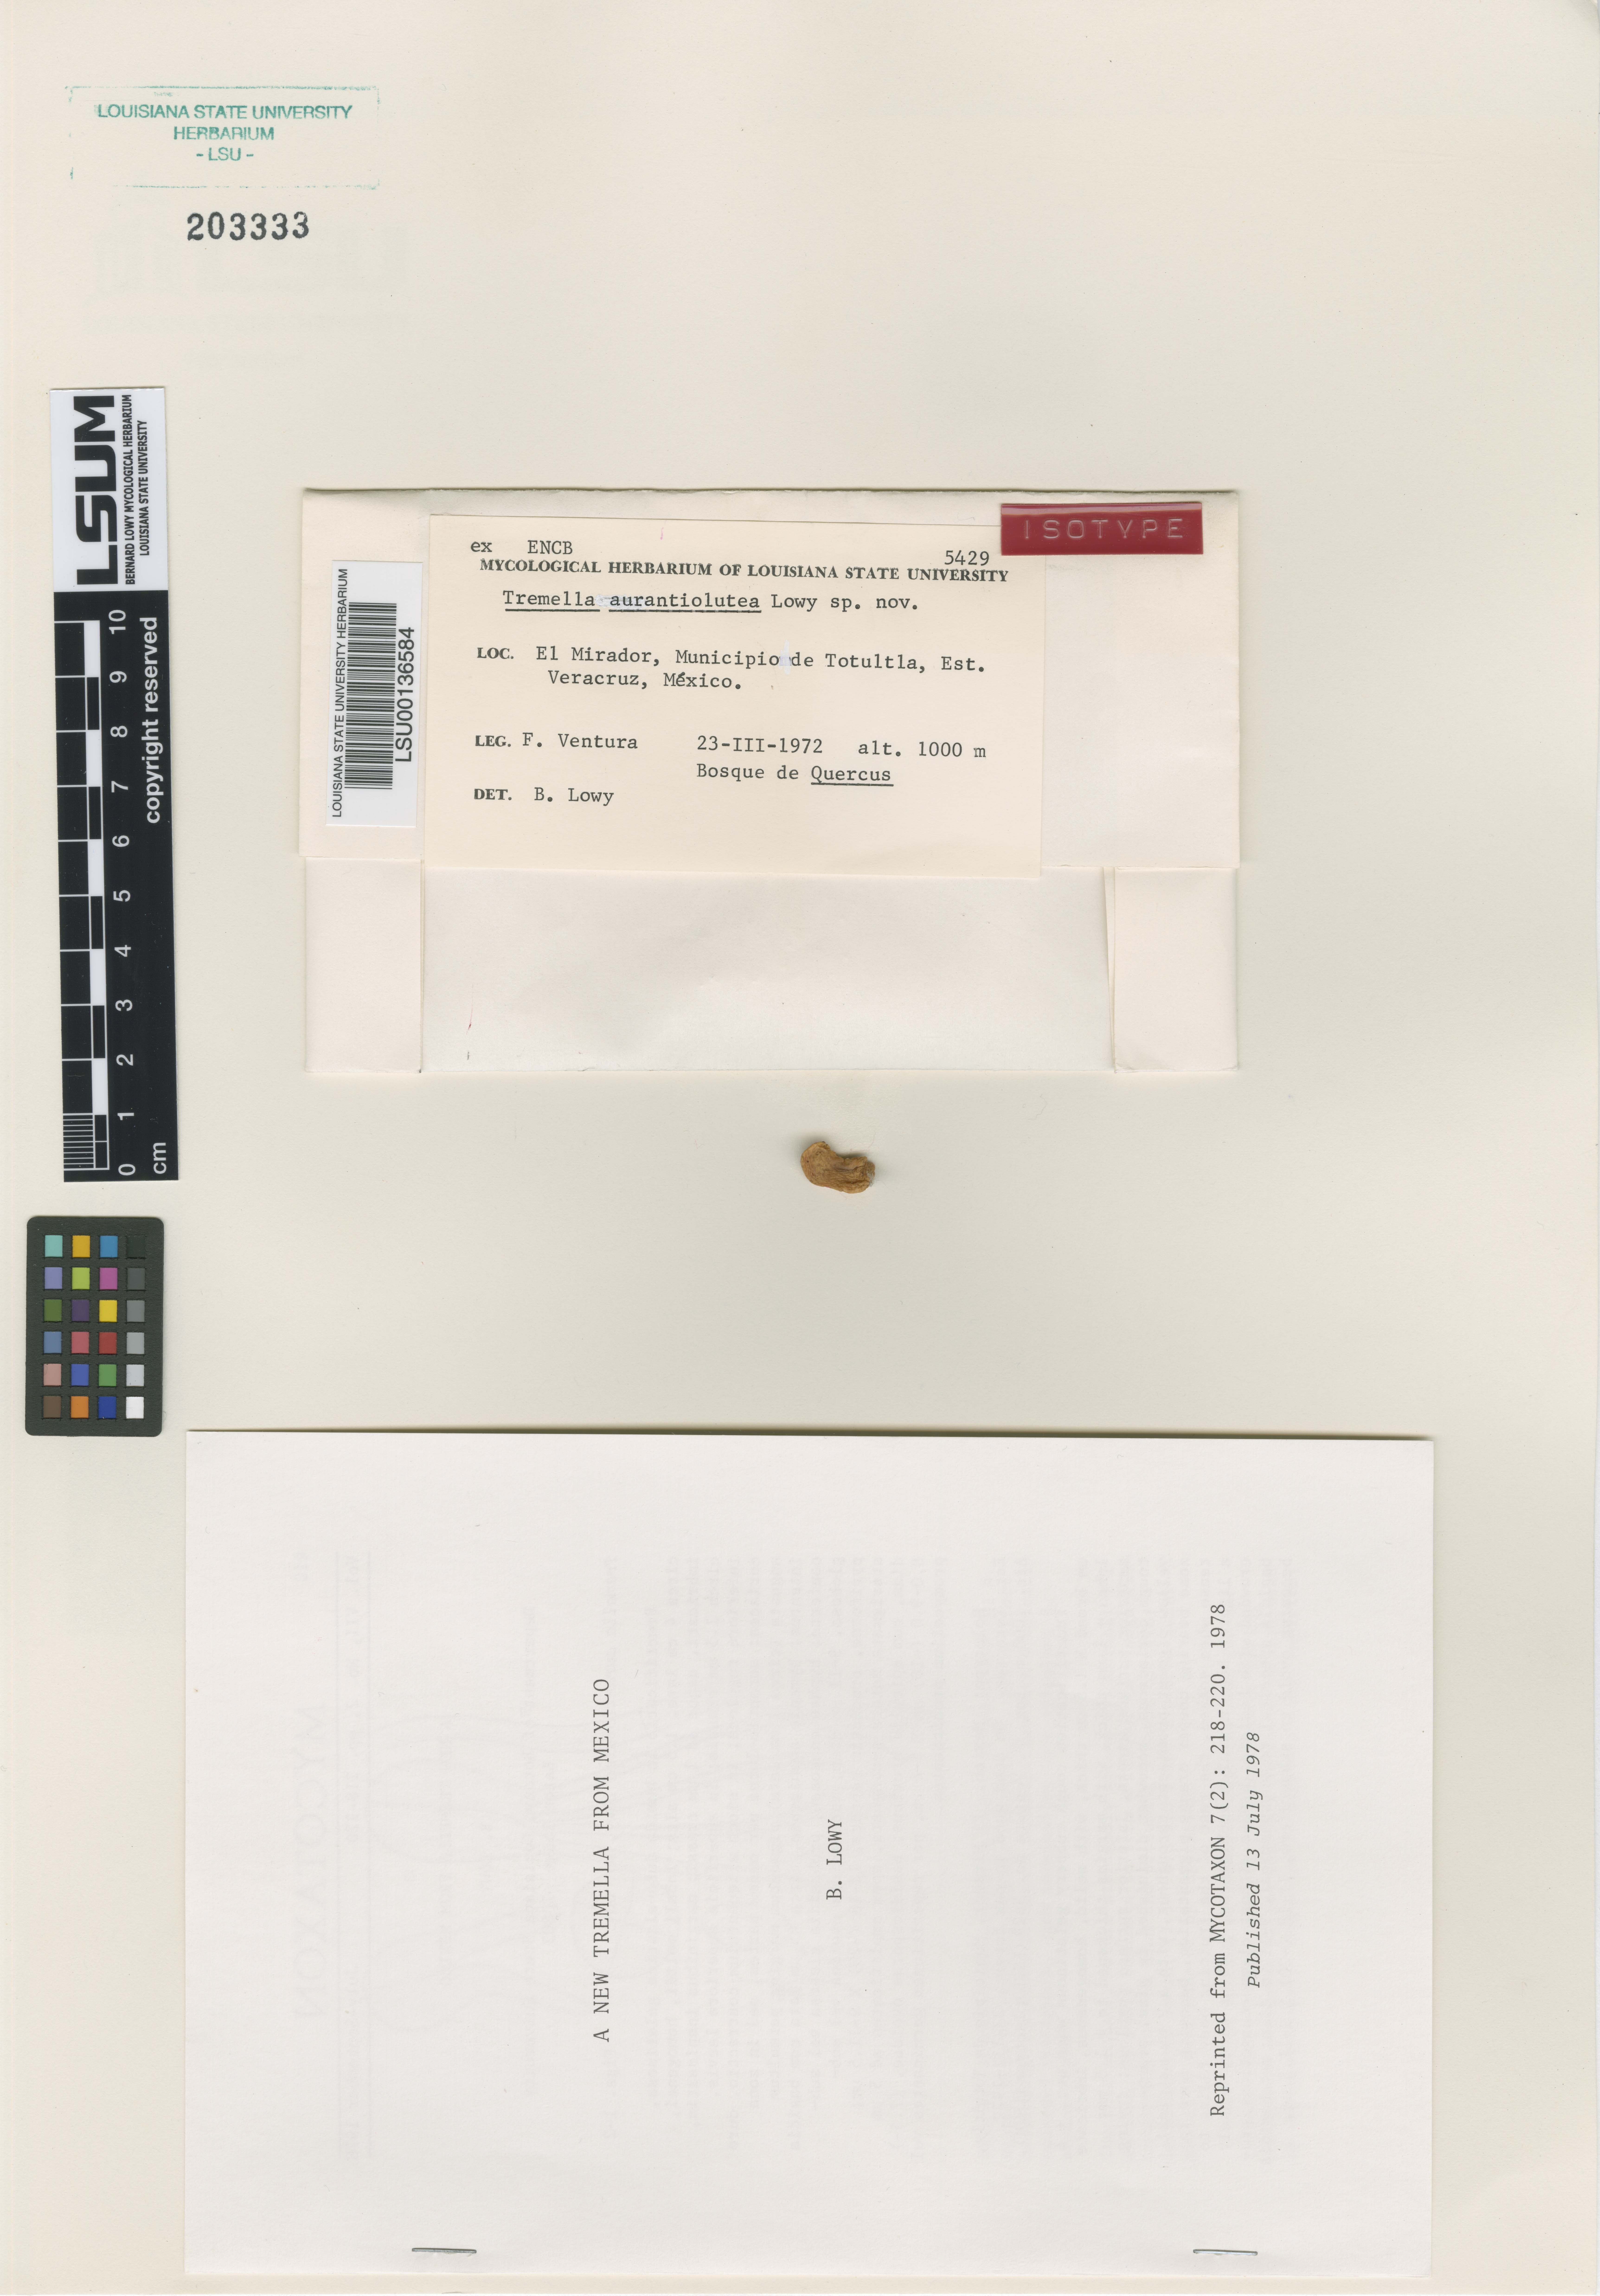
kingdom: Fungi
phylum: Basidiomycota
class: Tremellomycetes
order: Tremellales
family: Tremellaceae
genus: Tremella
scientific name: Tremella aurantiolutea
